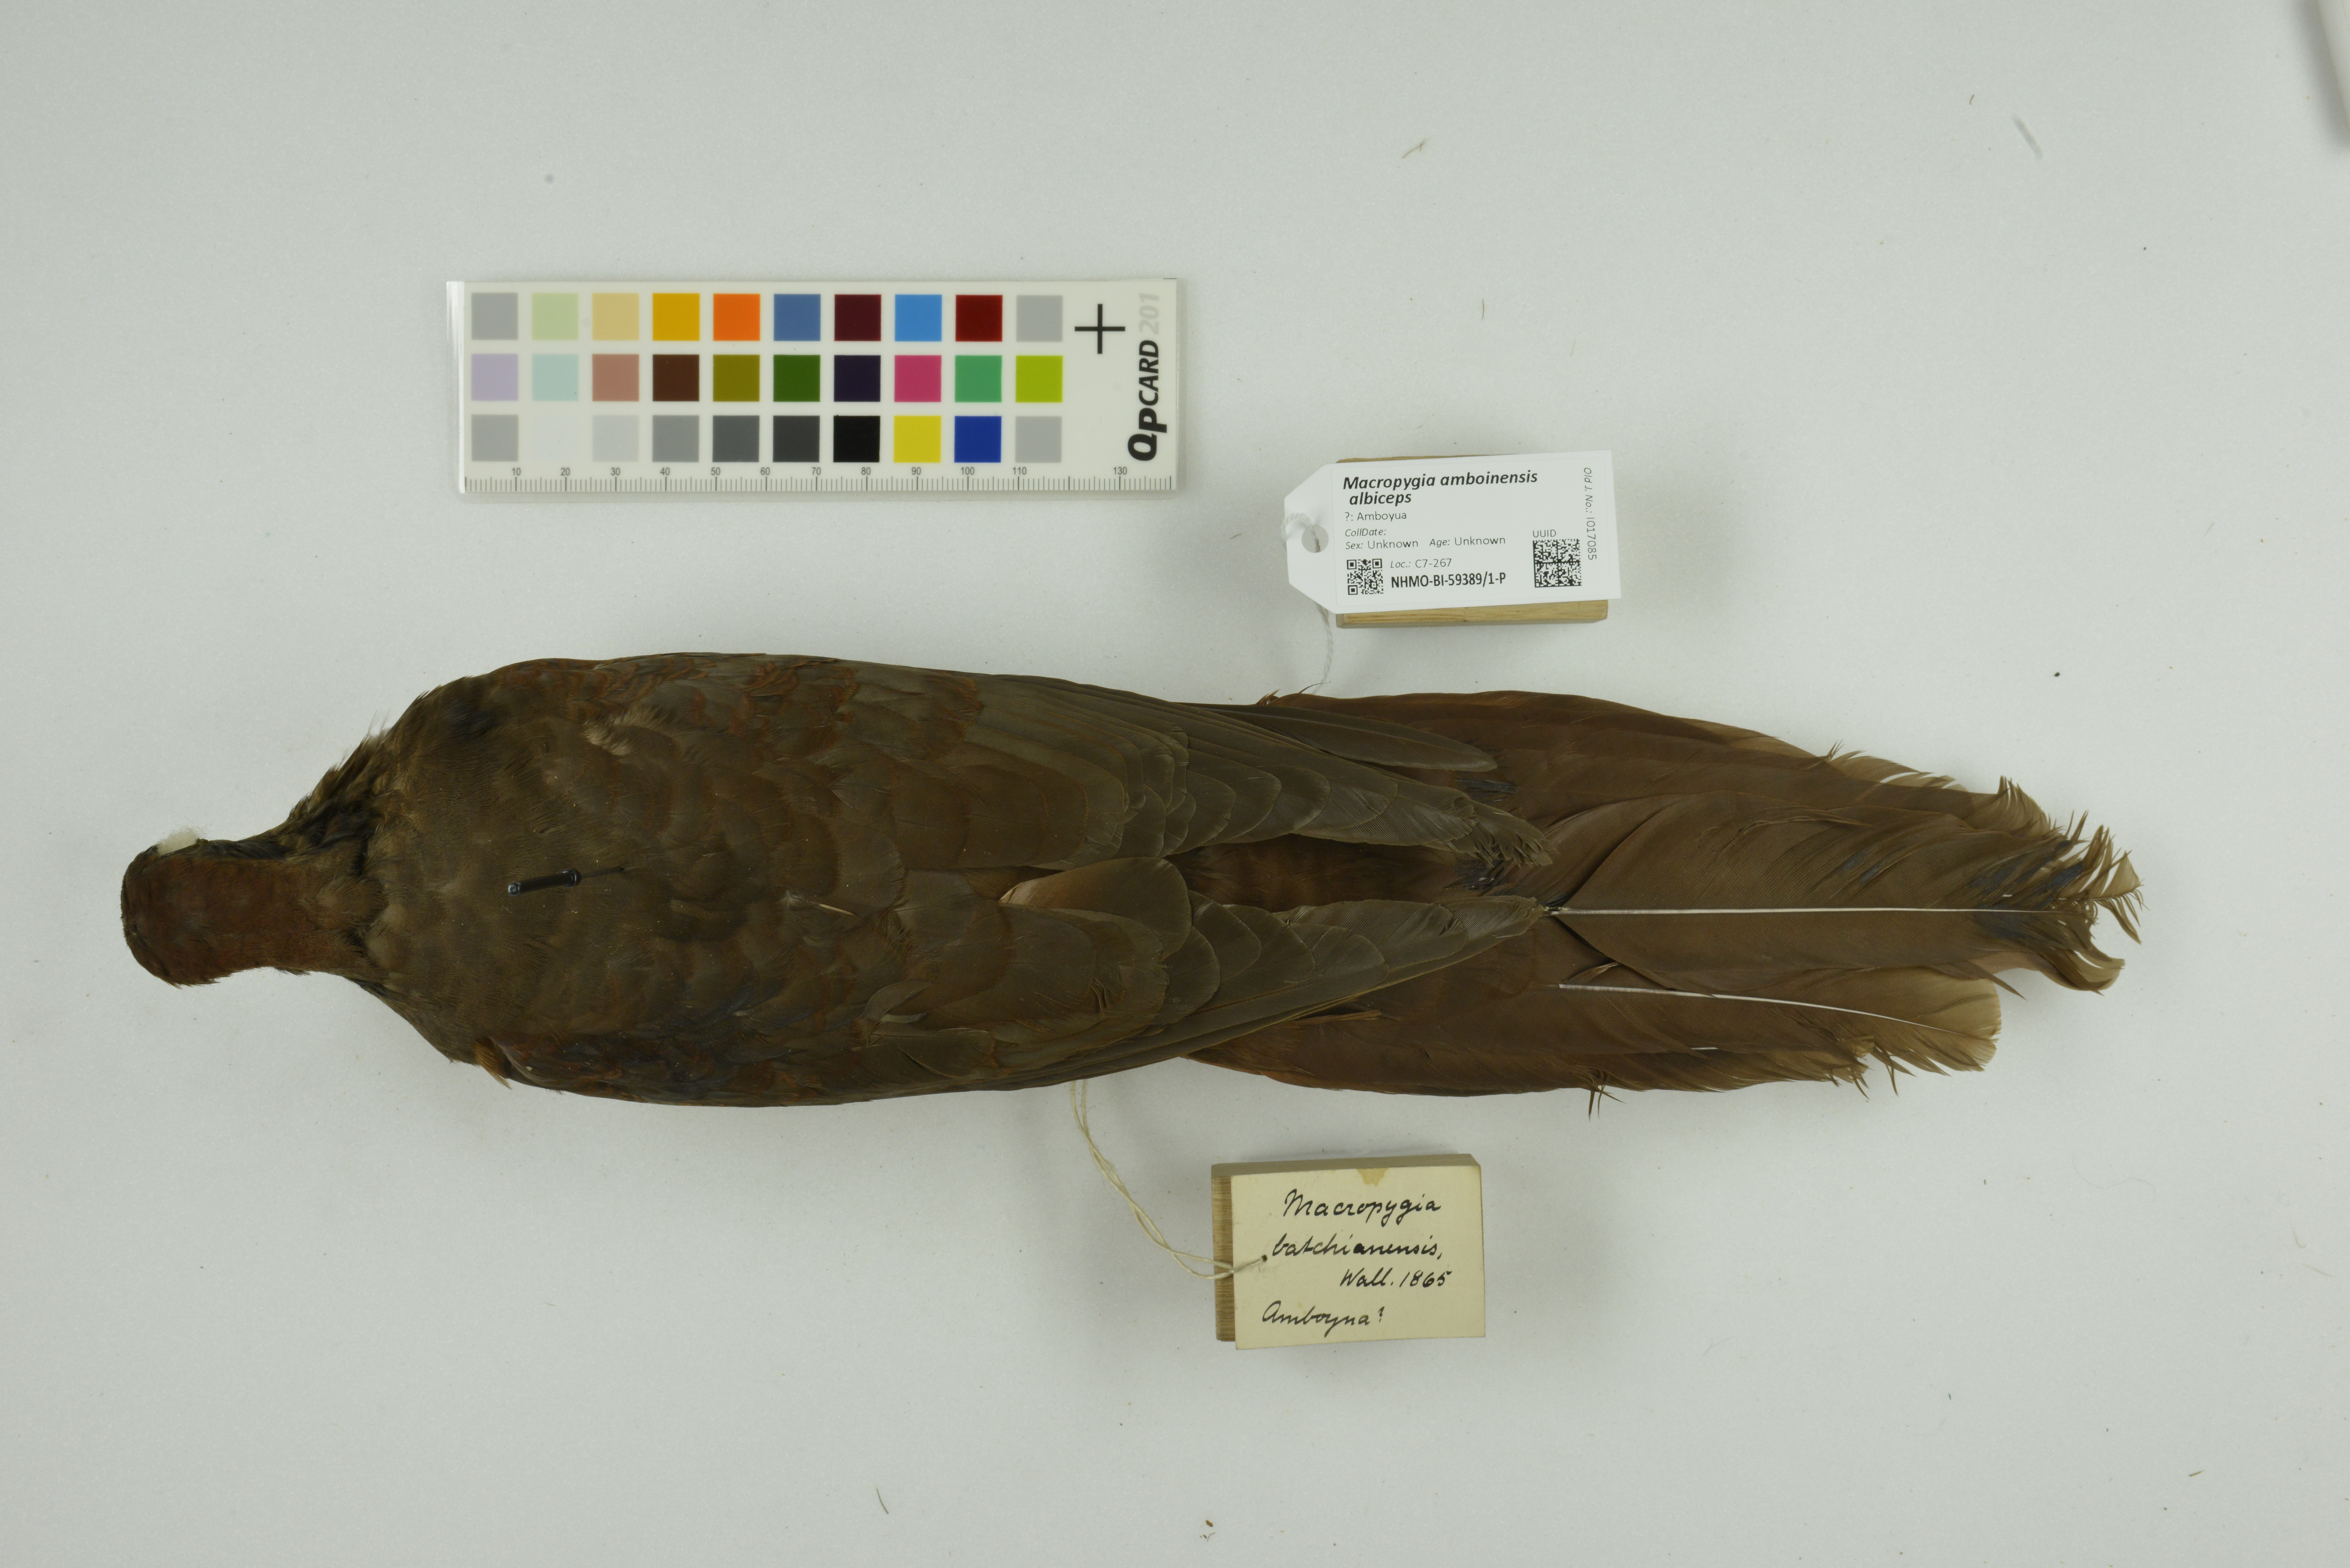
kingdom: Animalia
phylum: Chordata
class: Aves
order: Columbiformes
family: Columbidae
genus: Macropygia
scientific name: Macropygia doreya
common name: Sultan's cuckoo-dove
